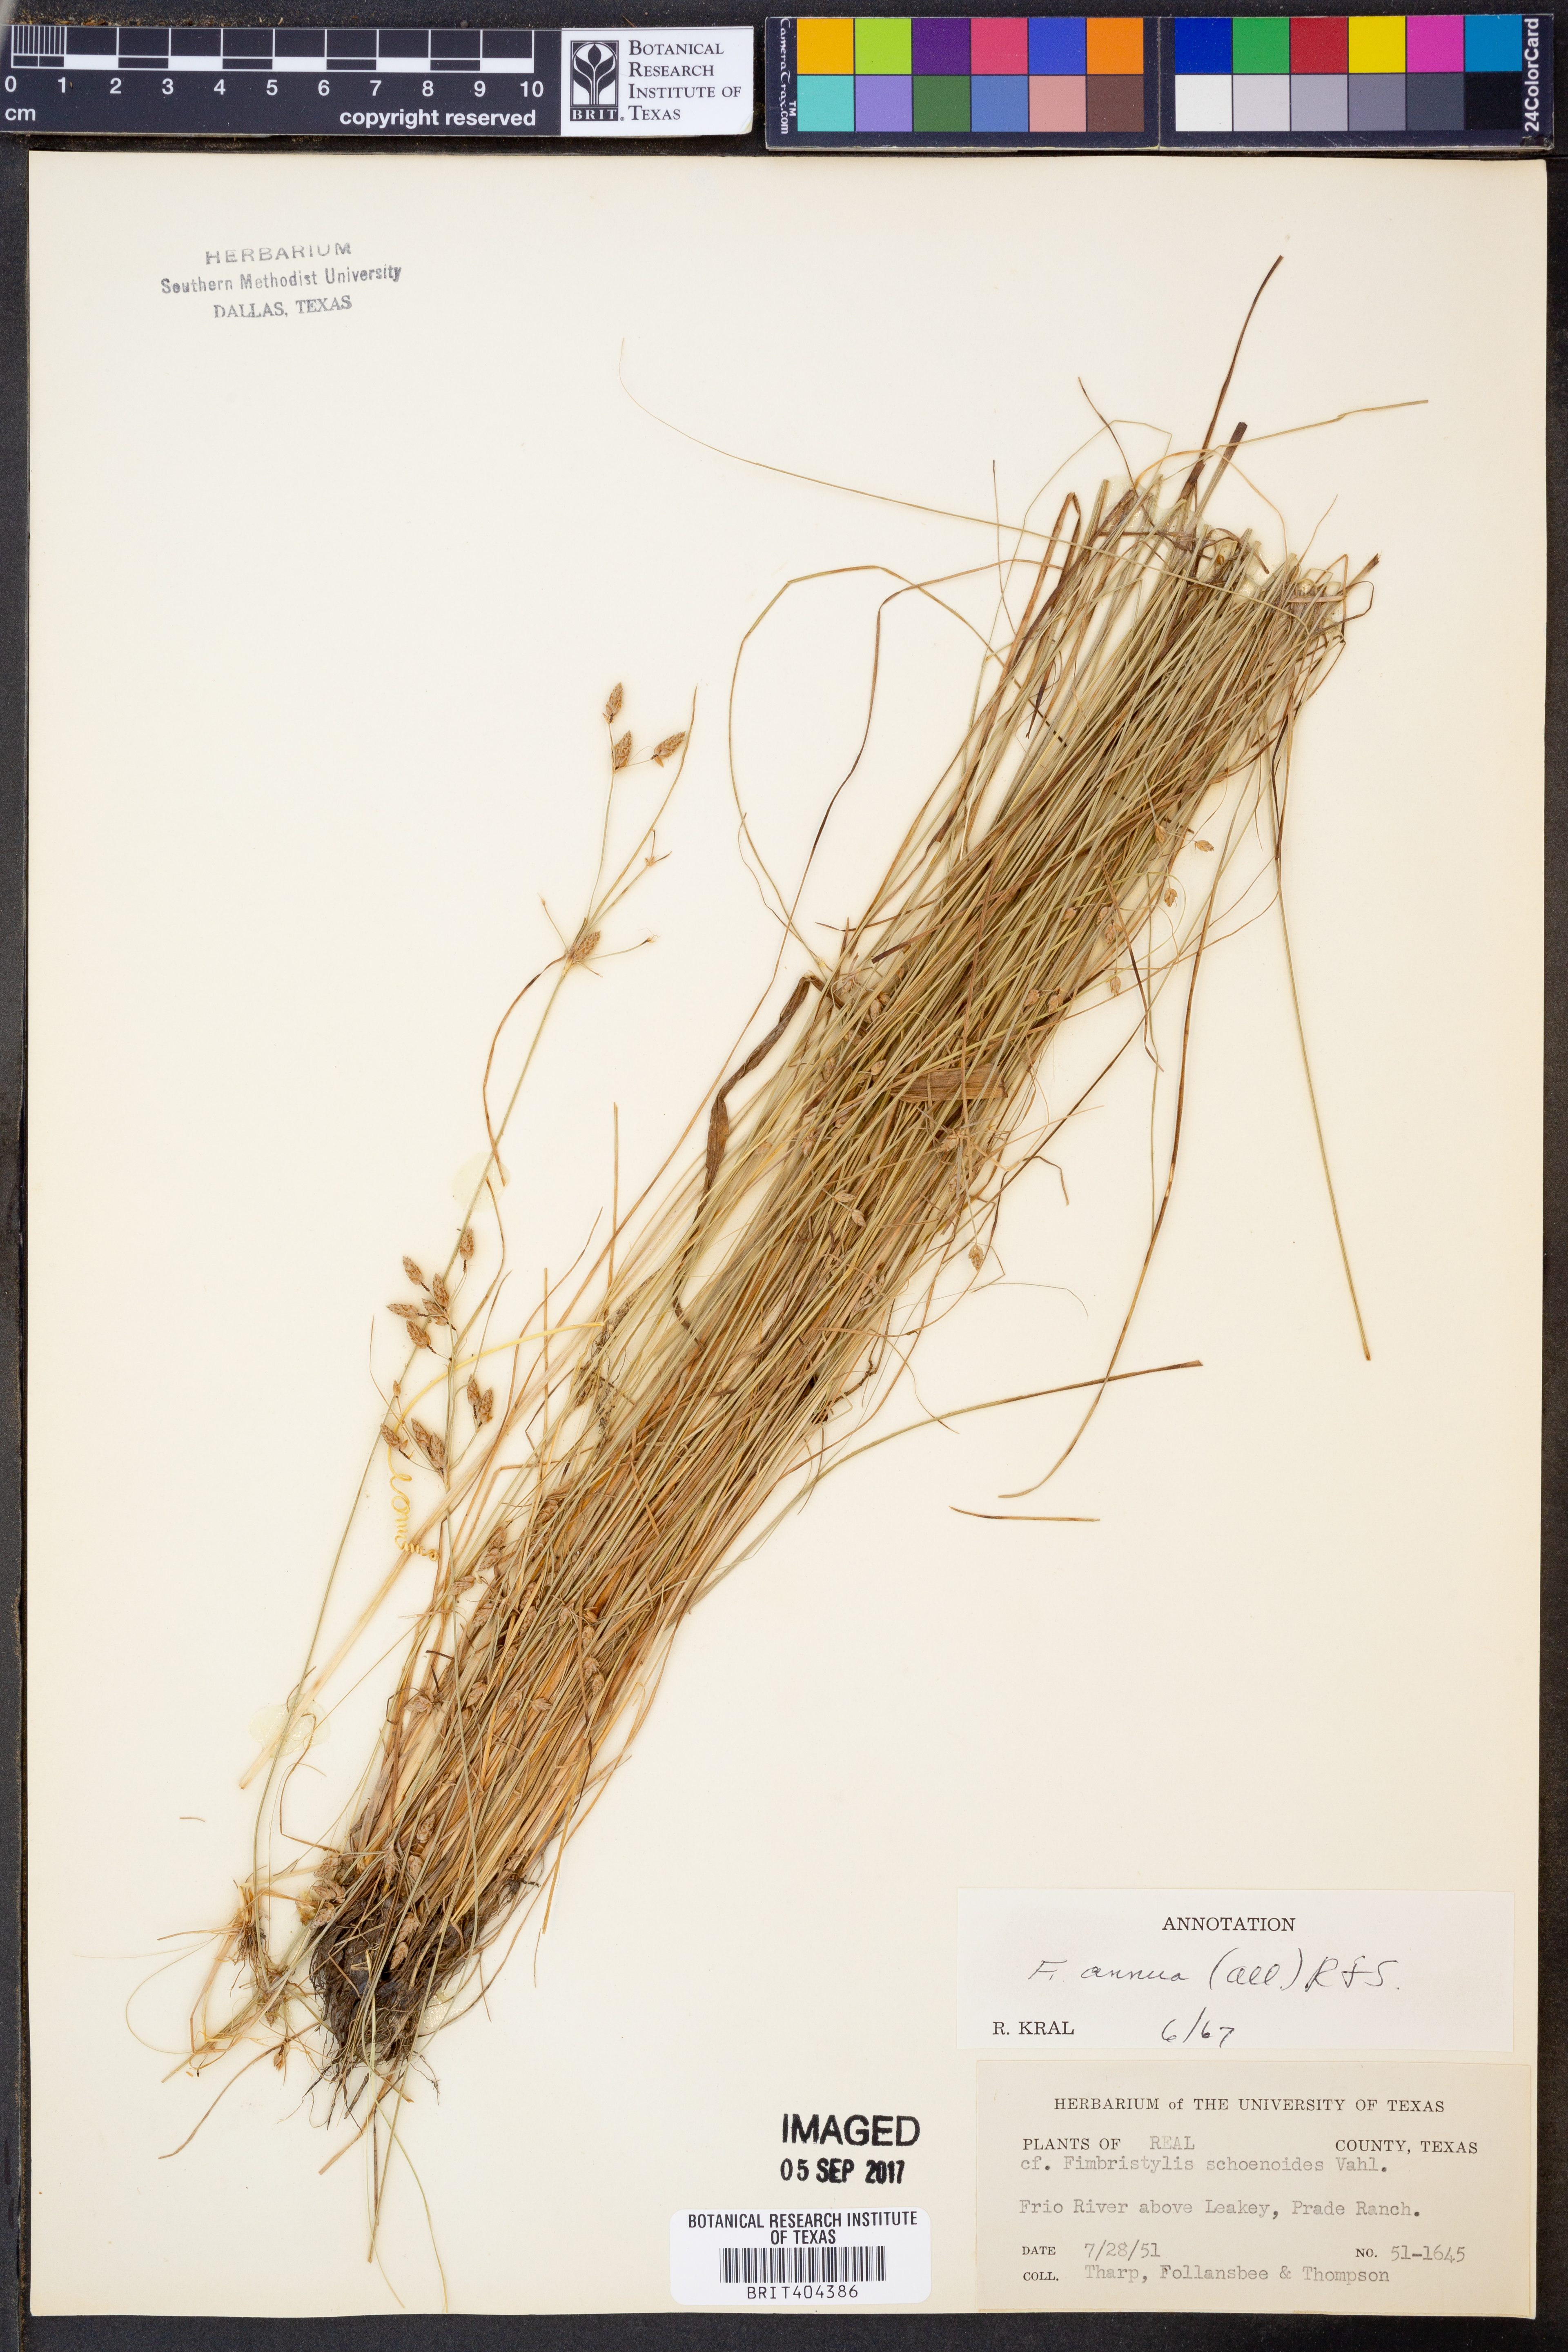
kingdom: Plantae
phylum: Tracheophyta
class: Liliopsida
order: Poales
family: Cyperaceae
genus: Fimbristylis
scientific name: Fimbristylis dichotoma
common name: Forked fimbry
